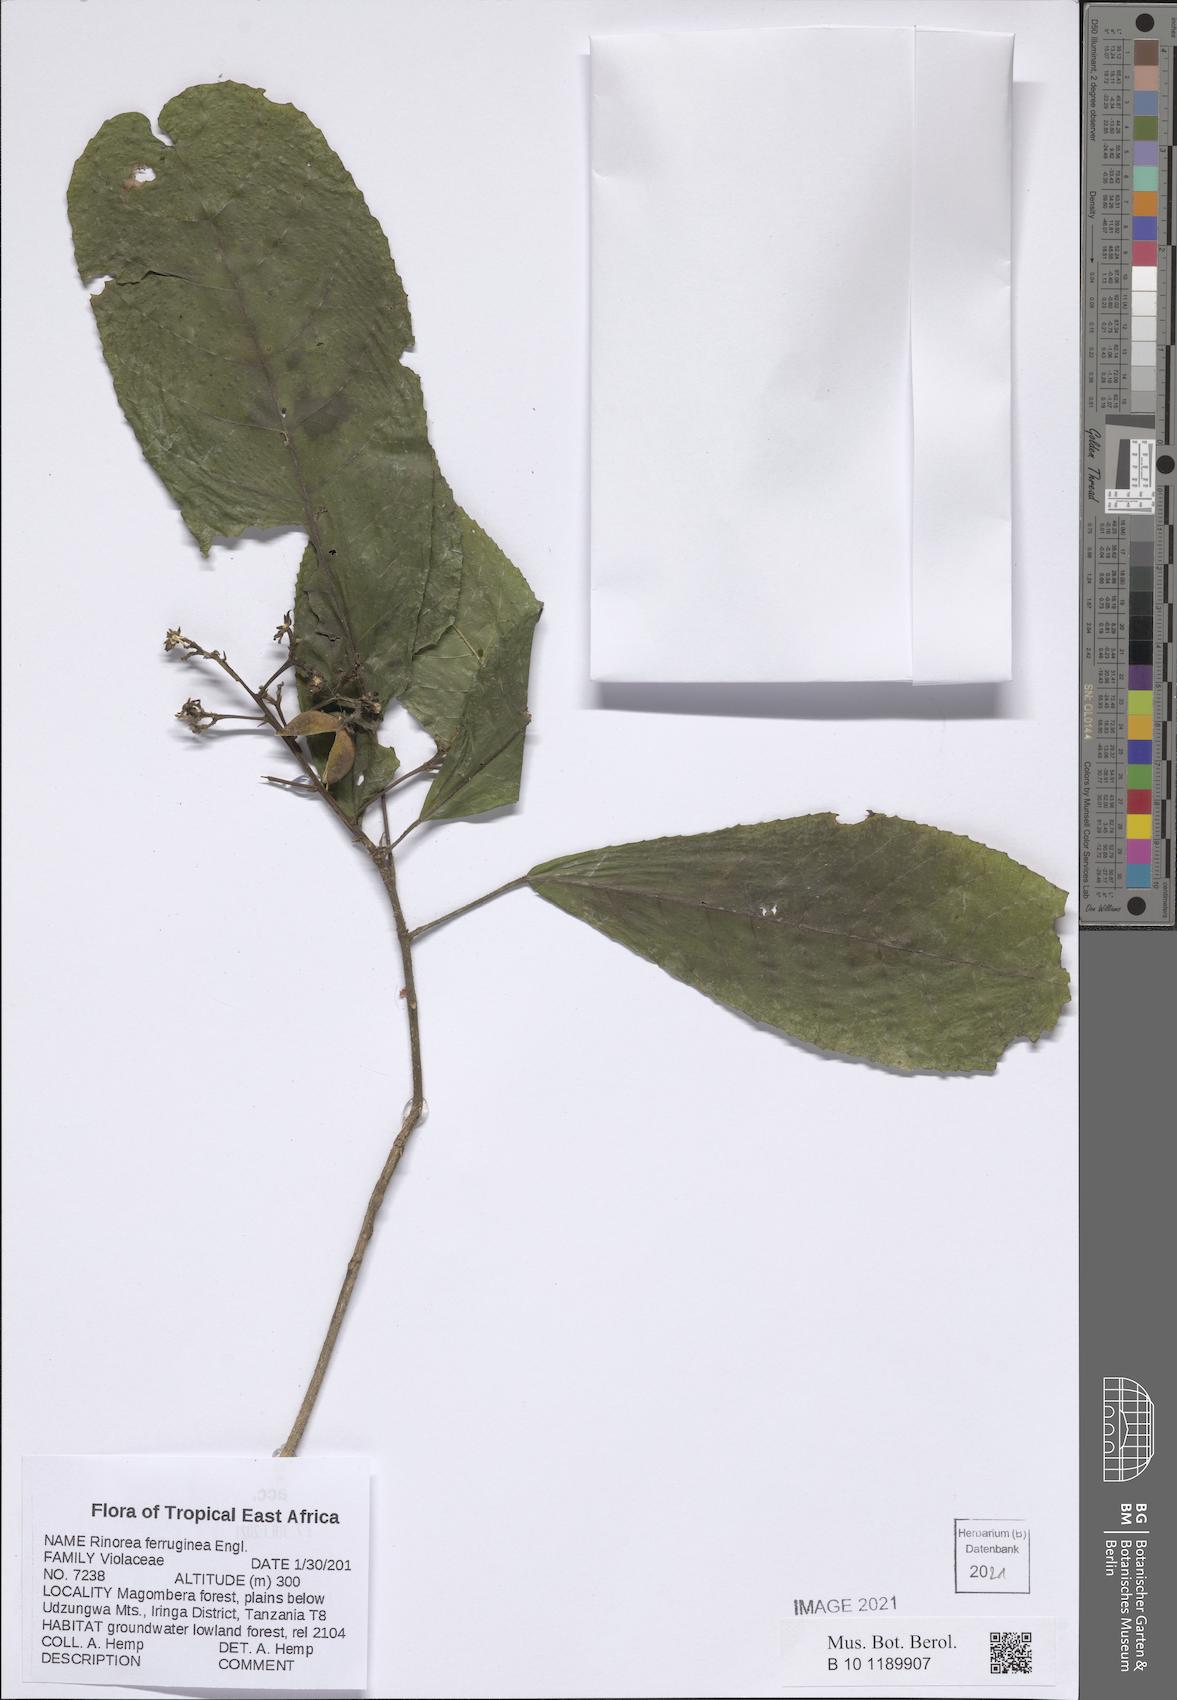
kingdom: Plantae
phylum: Tracheophyta
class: Magnoliopsida
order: Malpighiales
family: Violaceae
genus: Rinorea
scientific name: Rinorea ferruginea
